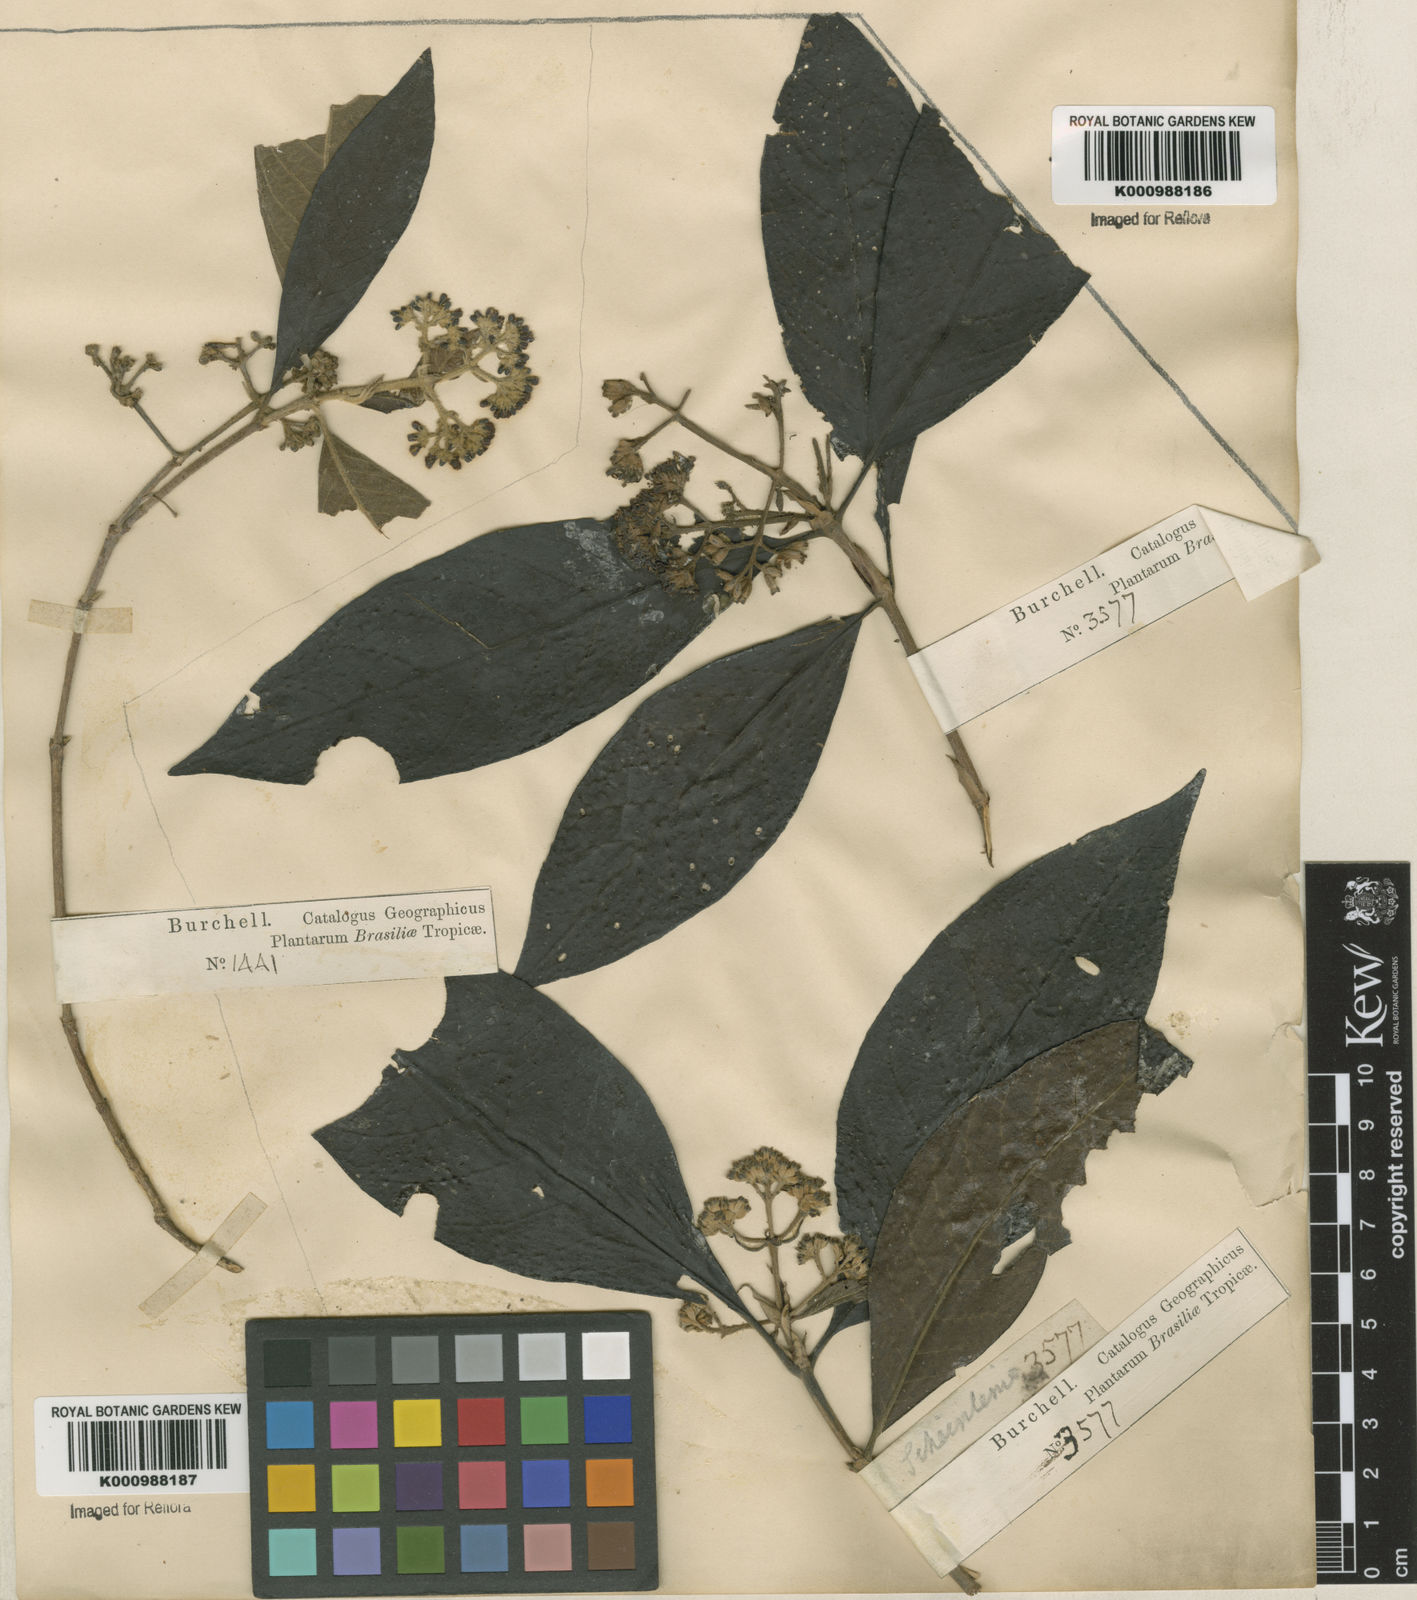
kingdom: Plantae
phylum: Tracheophyta
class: Magnoliopsida
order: Gentianales
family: Rubiaceae
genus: Bathysa
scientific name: Bathysa
